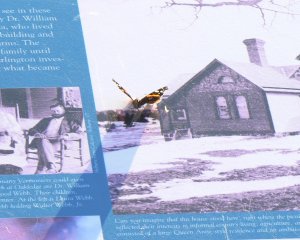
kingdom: Animalia
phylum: Arthropoda
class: Insecta
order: Lepidoptera
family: Nymphalidae
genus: Vanessa
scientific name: Vanessa atalanta
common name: Red Admiral
